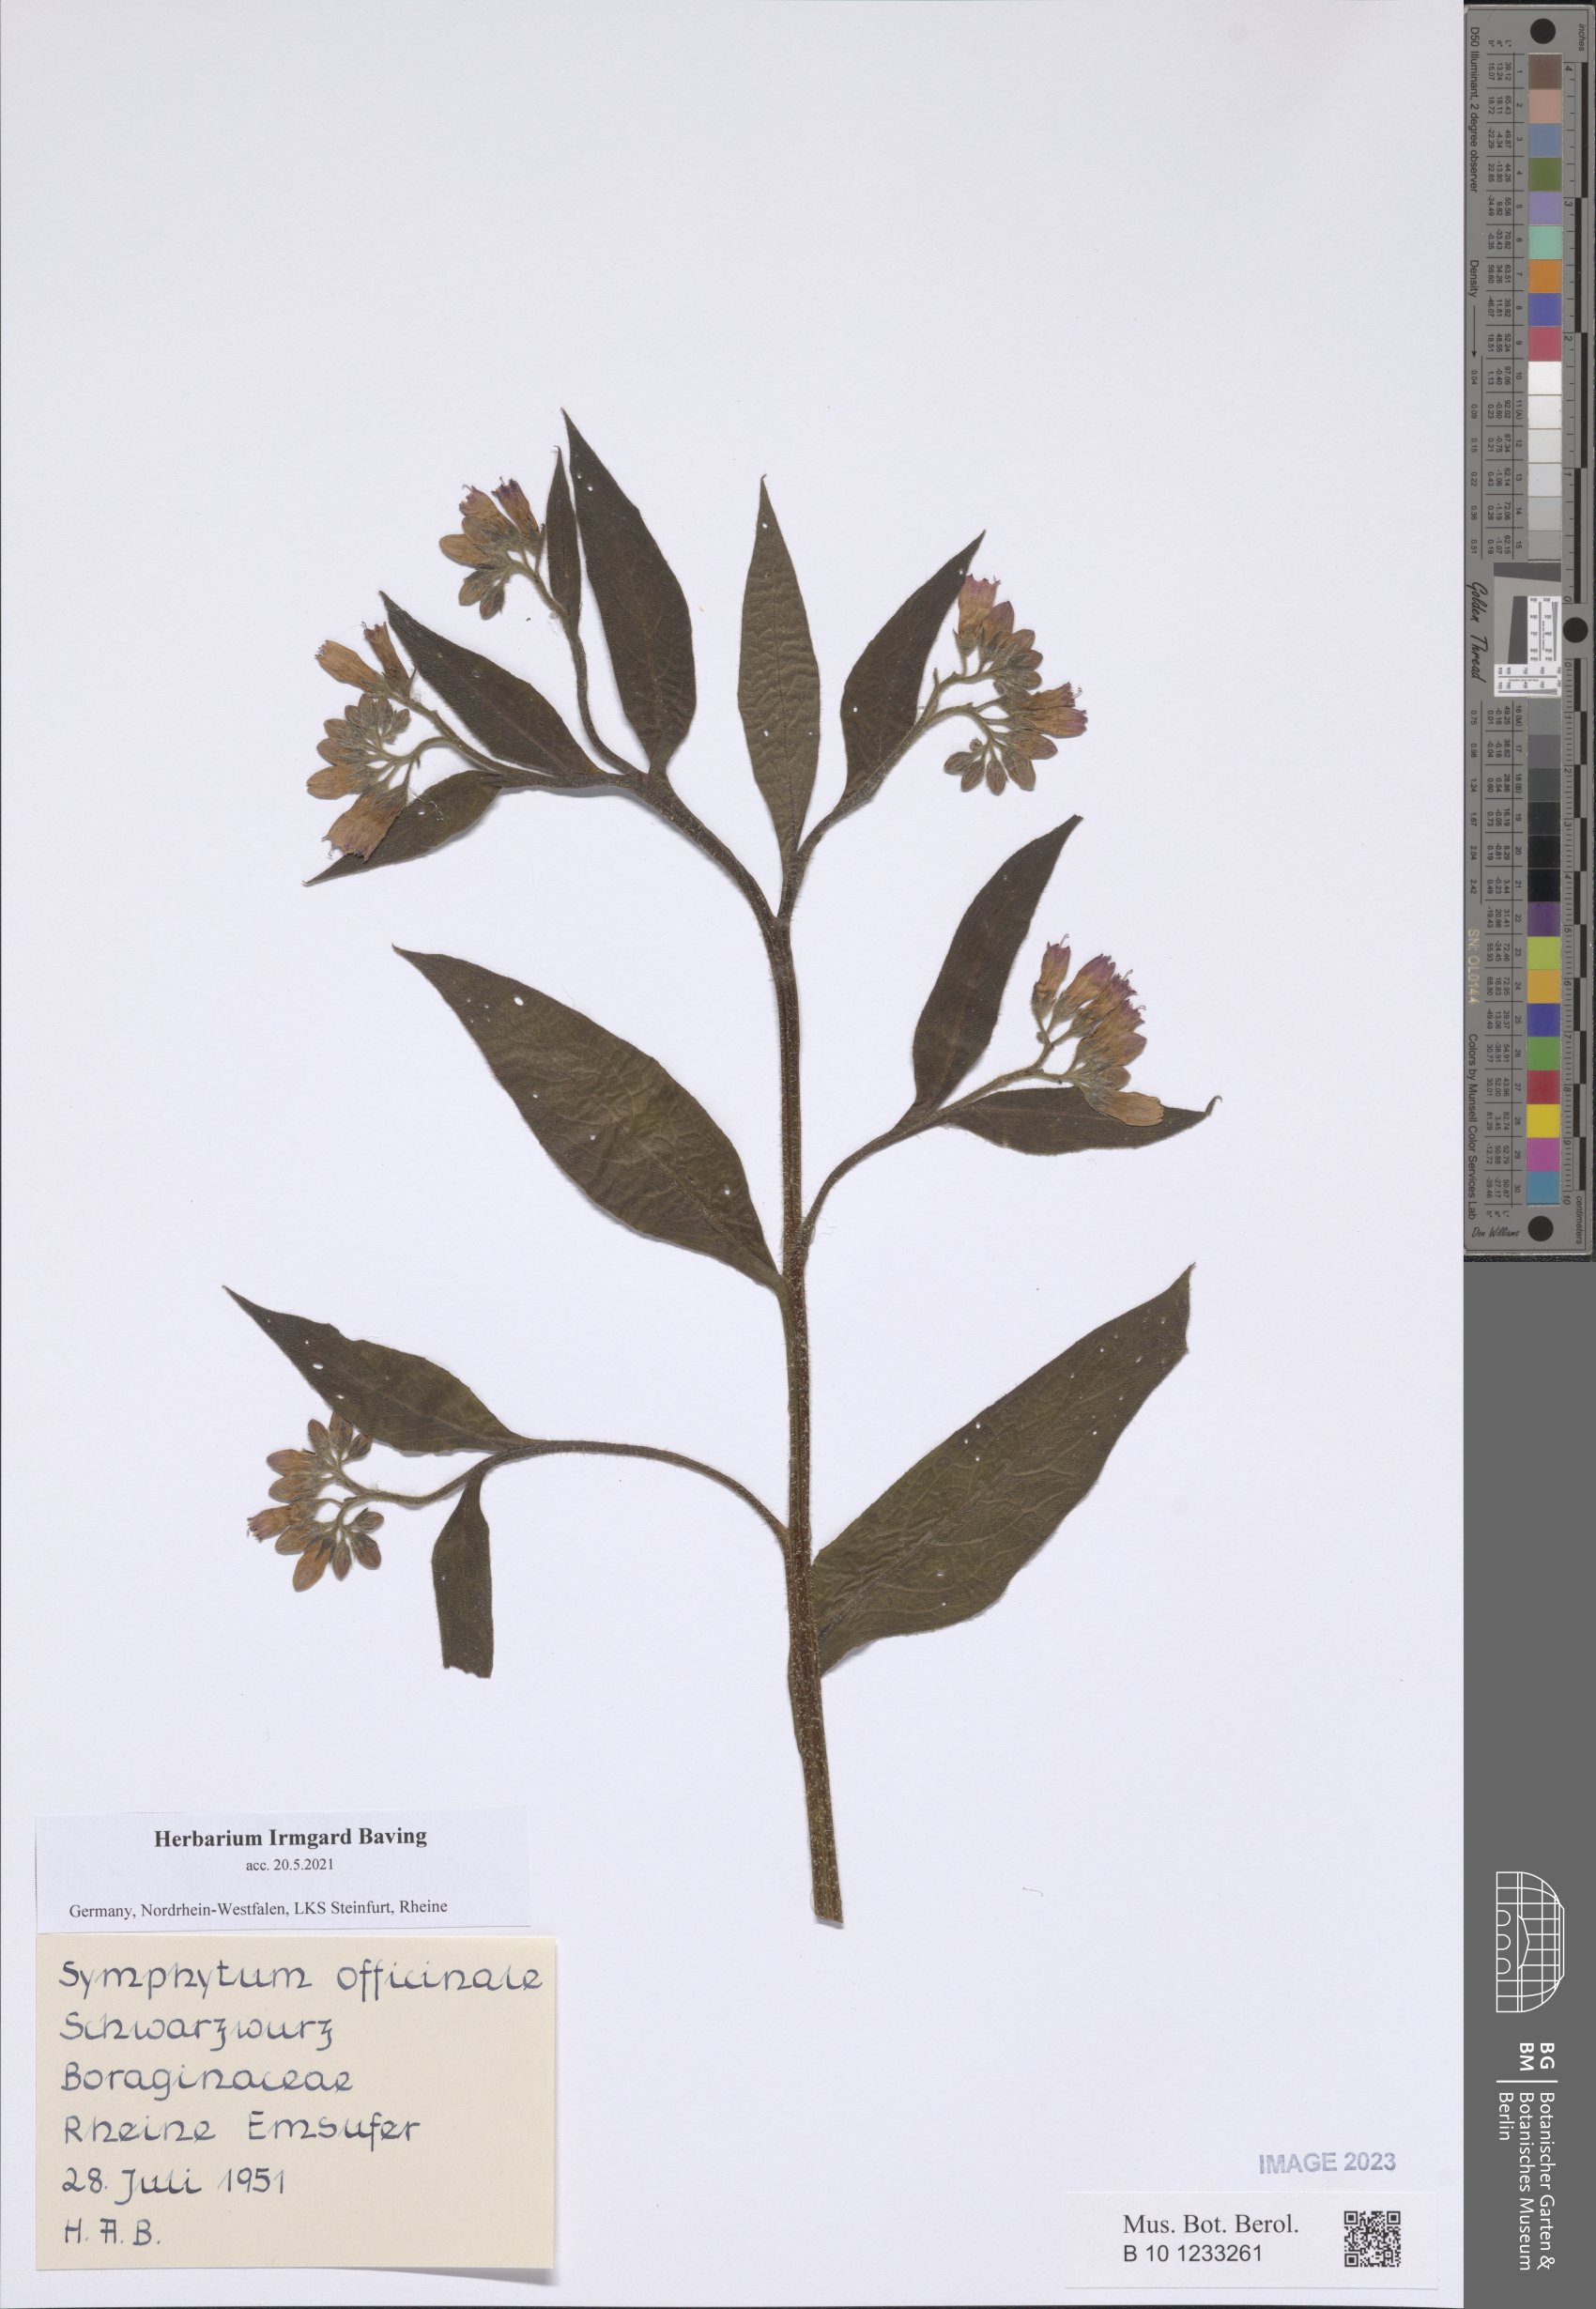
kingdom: Plantae
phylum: Tracheophyta
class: Magnoliopsida
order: Boraginales
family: Boraginaceae
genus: Symphytum
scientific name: Symphytum officinale
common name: Common comfrey
